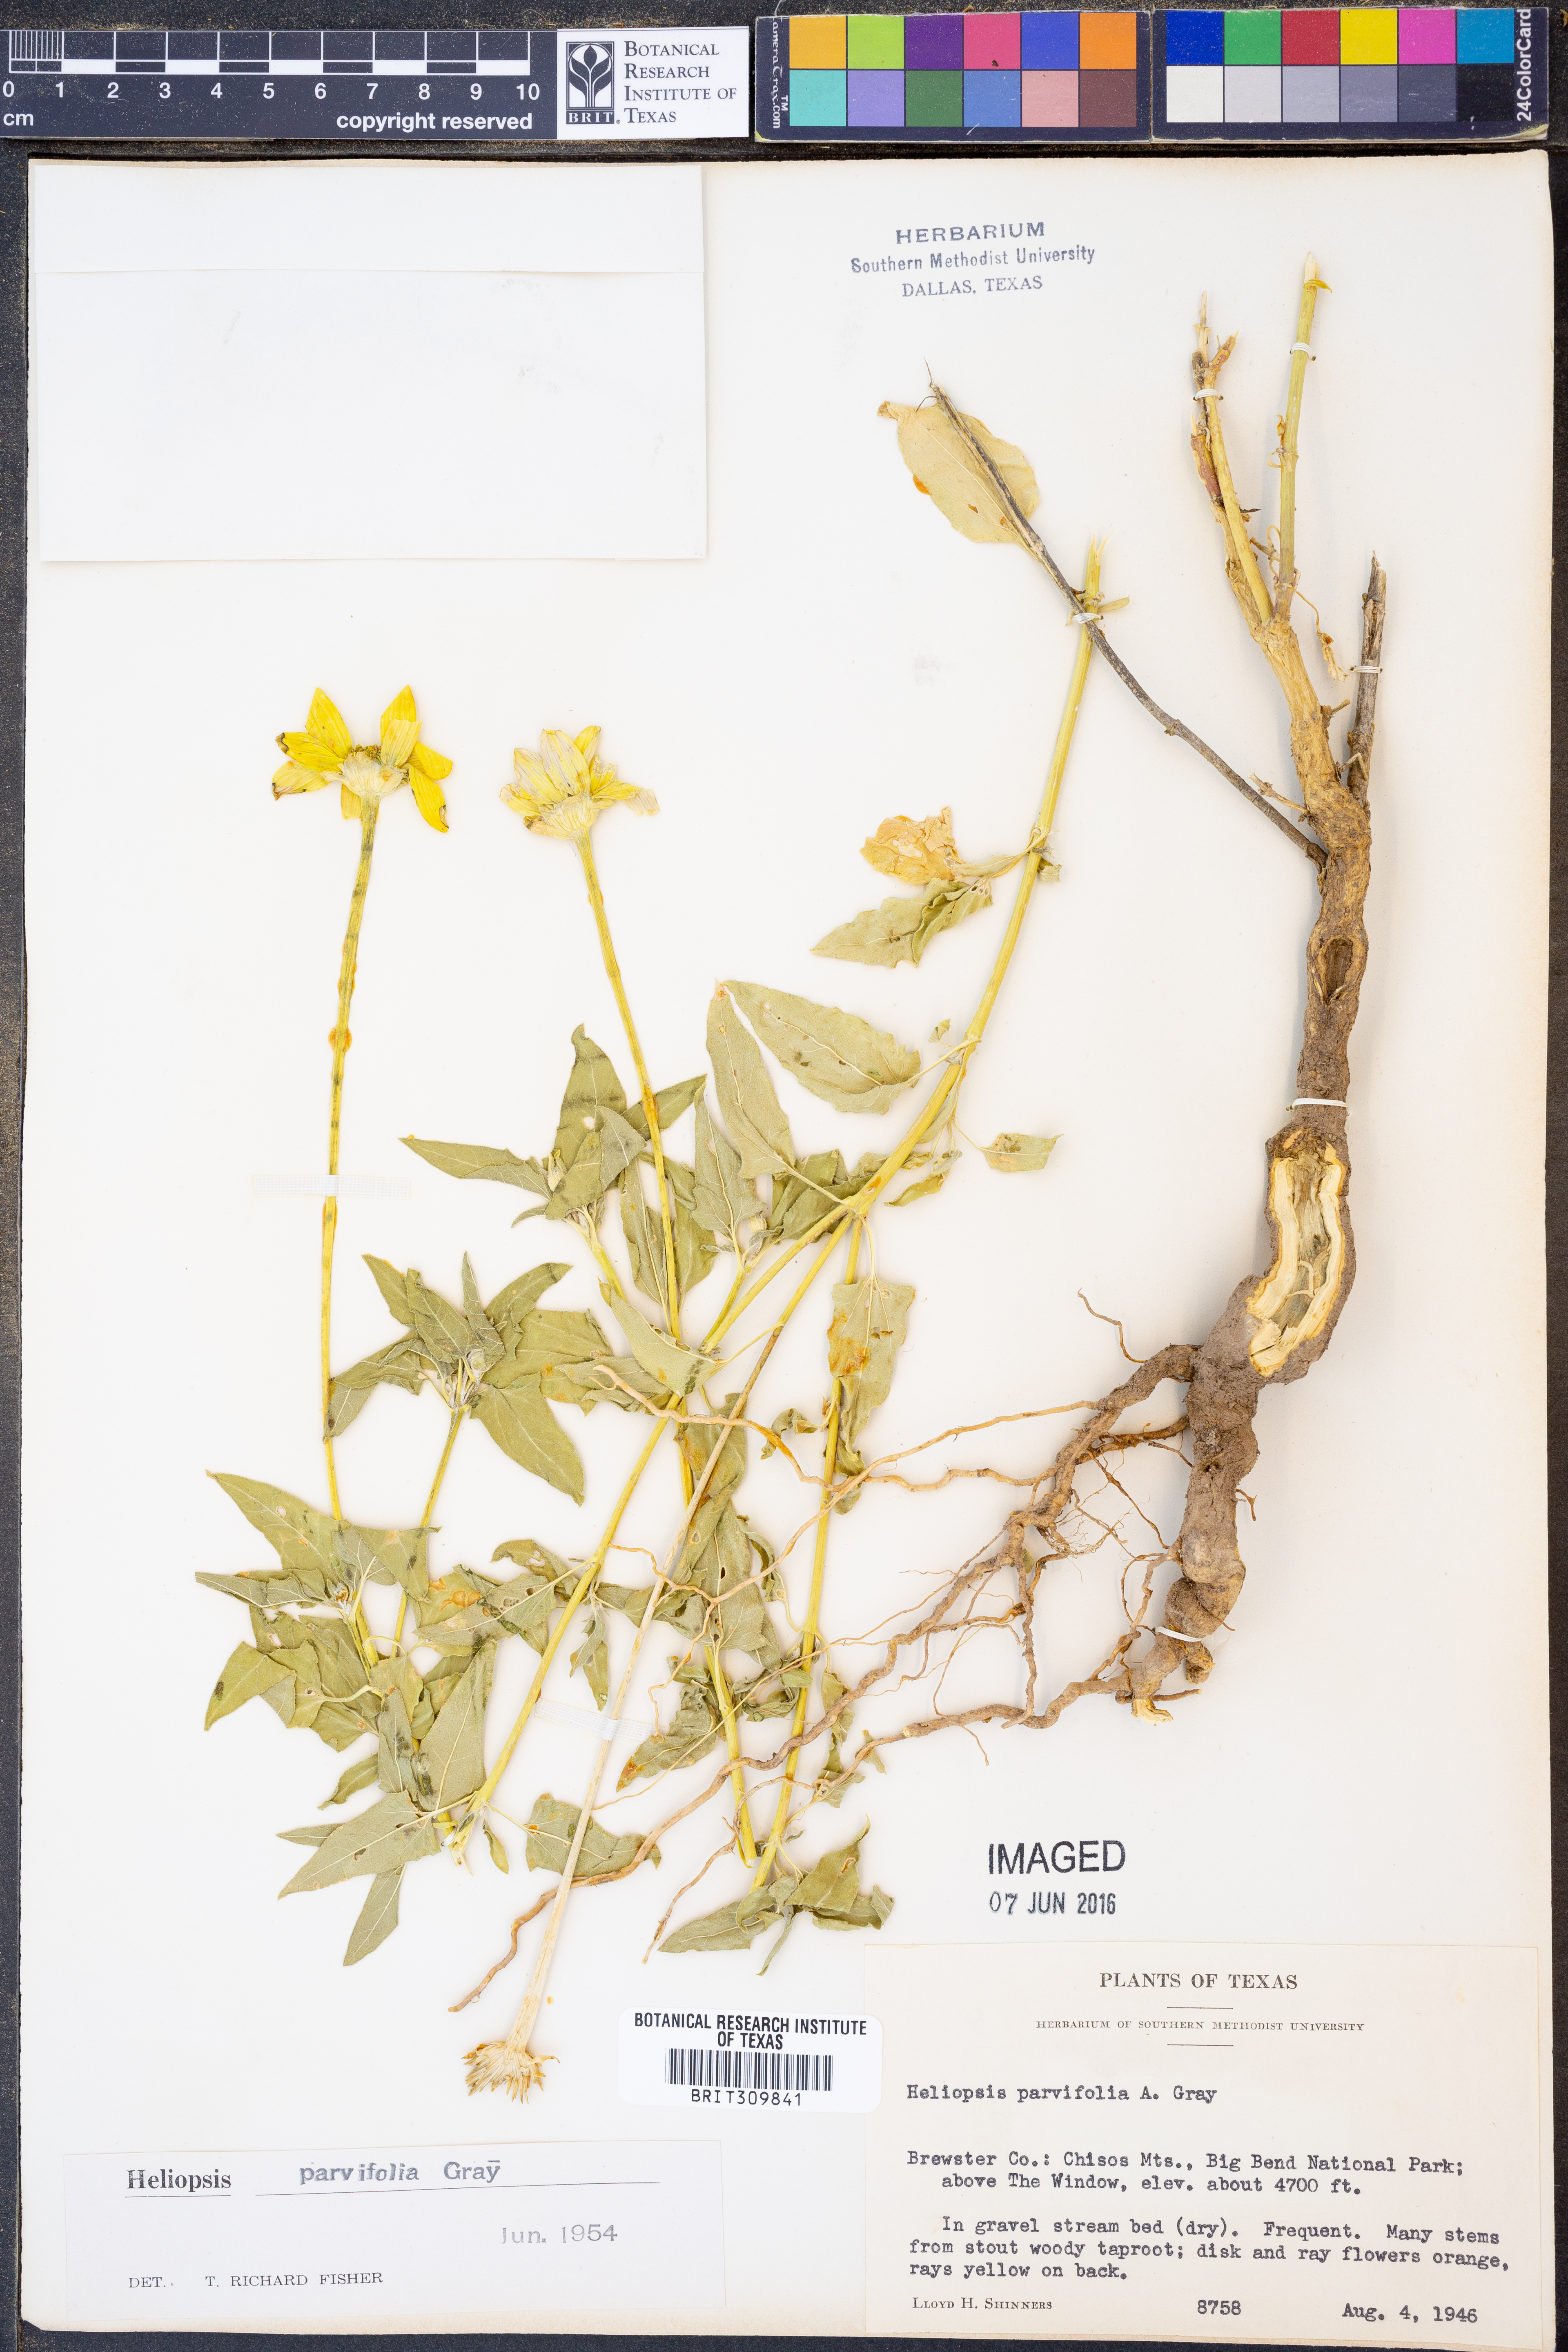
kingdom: Plantae
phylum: Tracheophyta
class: Magnoliopsida
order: Asterales
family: Asteraceae
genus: Heliopsis
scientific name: Heliopsis parvifolia
